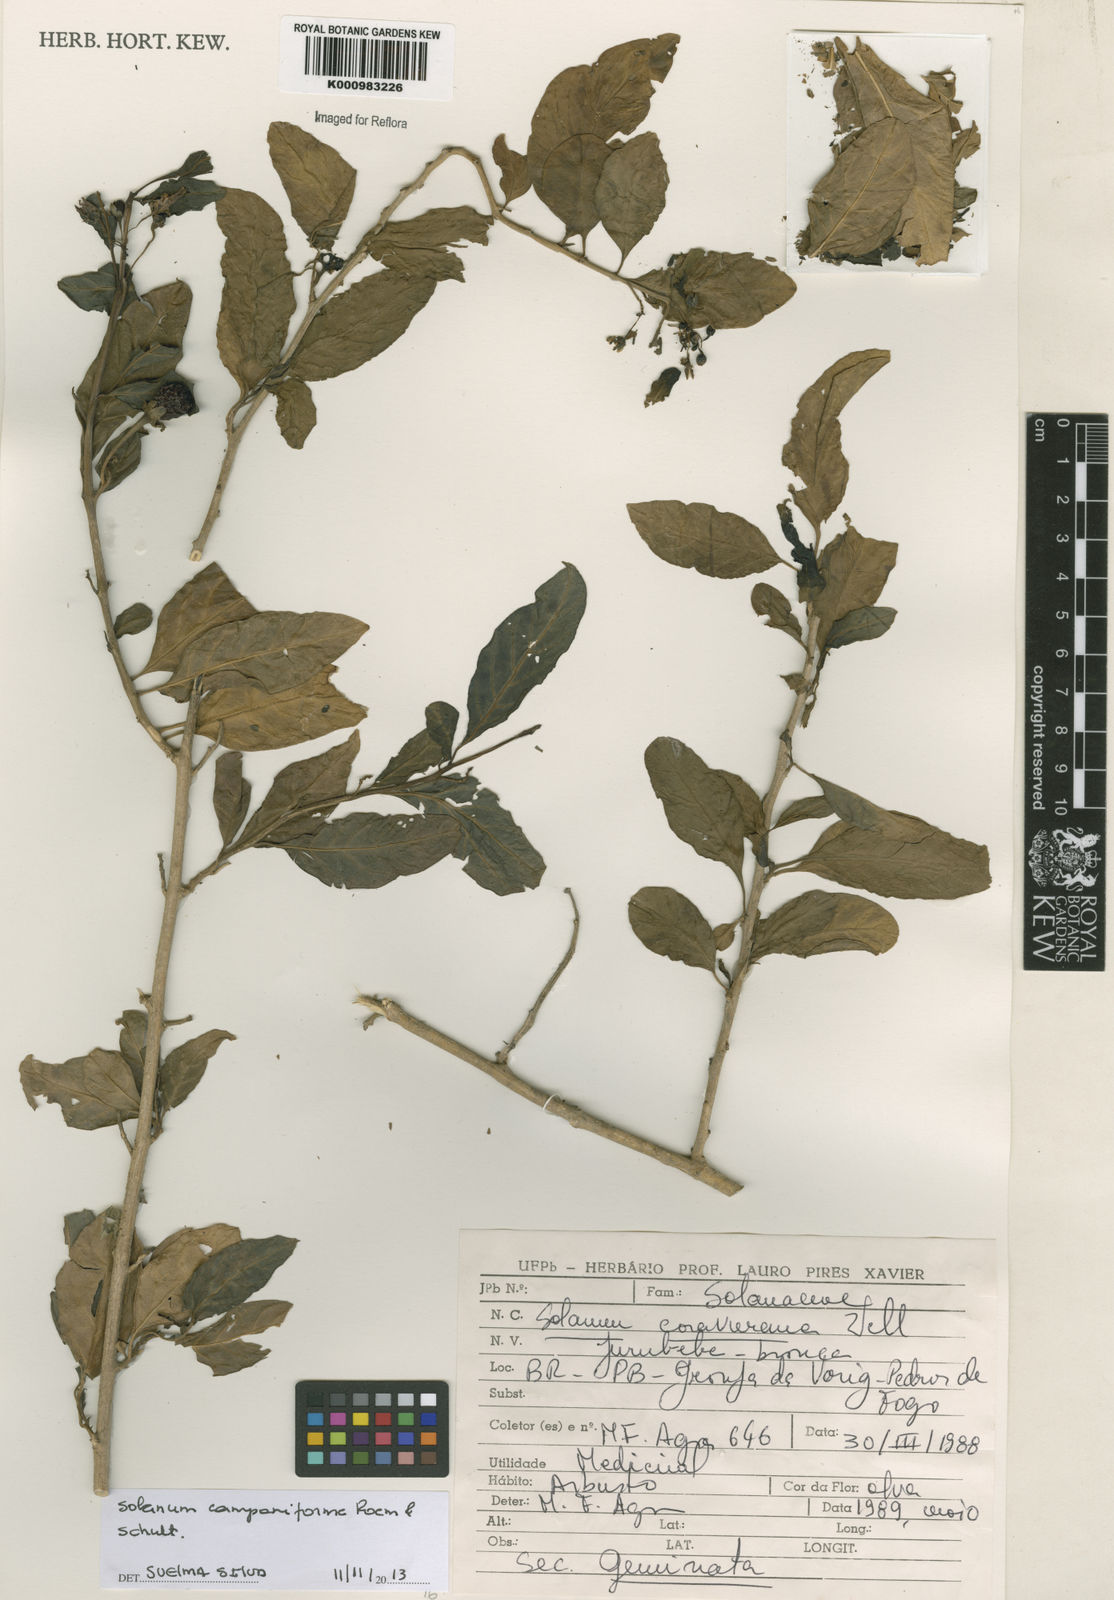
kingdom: Plantae
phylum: Tracheophyta
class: Magnoliopsida
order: Solanales
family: Solanaceae
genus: Solanum
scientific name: Solanum campaniforme
